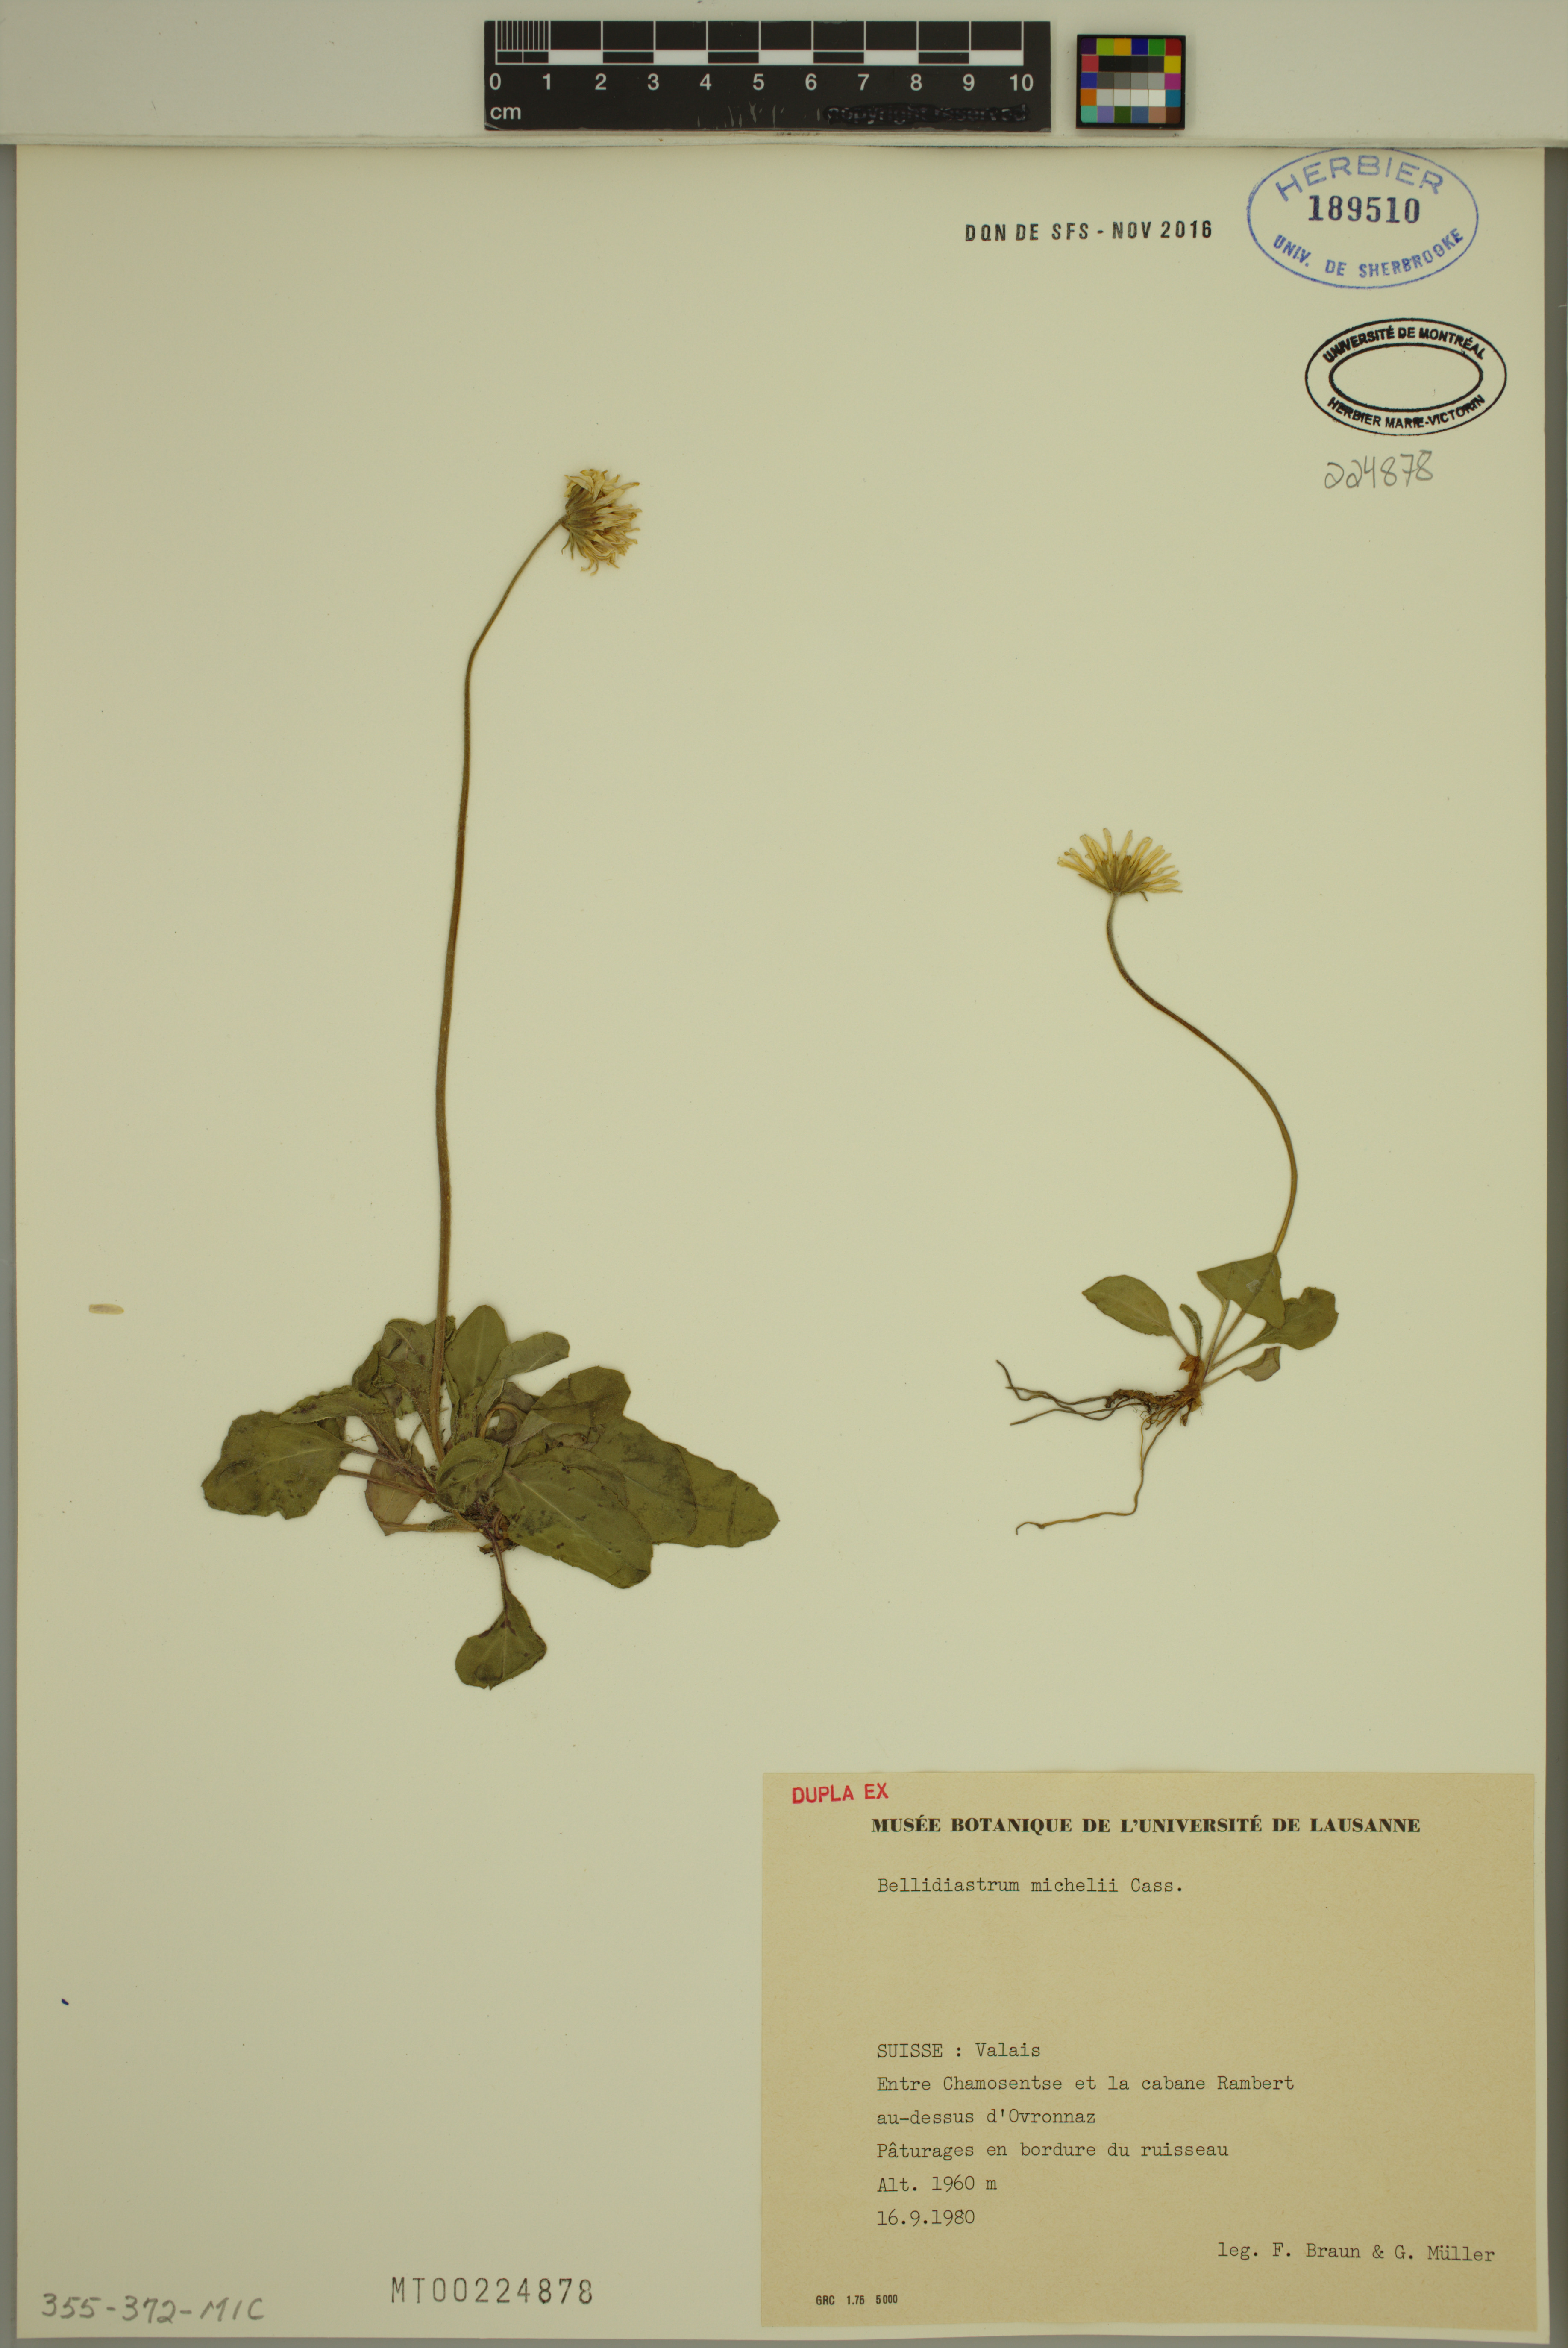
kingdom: Plantae
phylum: Tracheophyta
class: Magnoliopsida
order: Asterales
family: Asteraceae
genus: Bellidiastrum
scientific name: Bellidiastrum michelii
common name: Daisy-star aster
